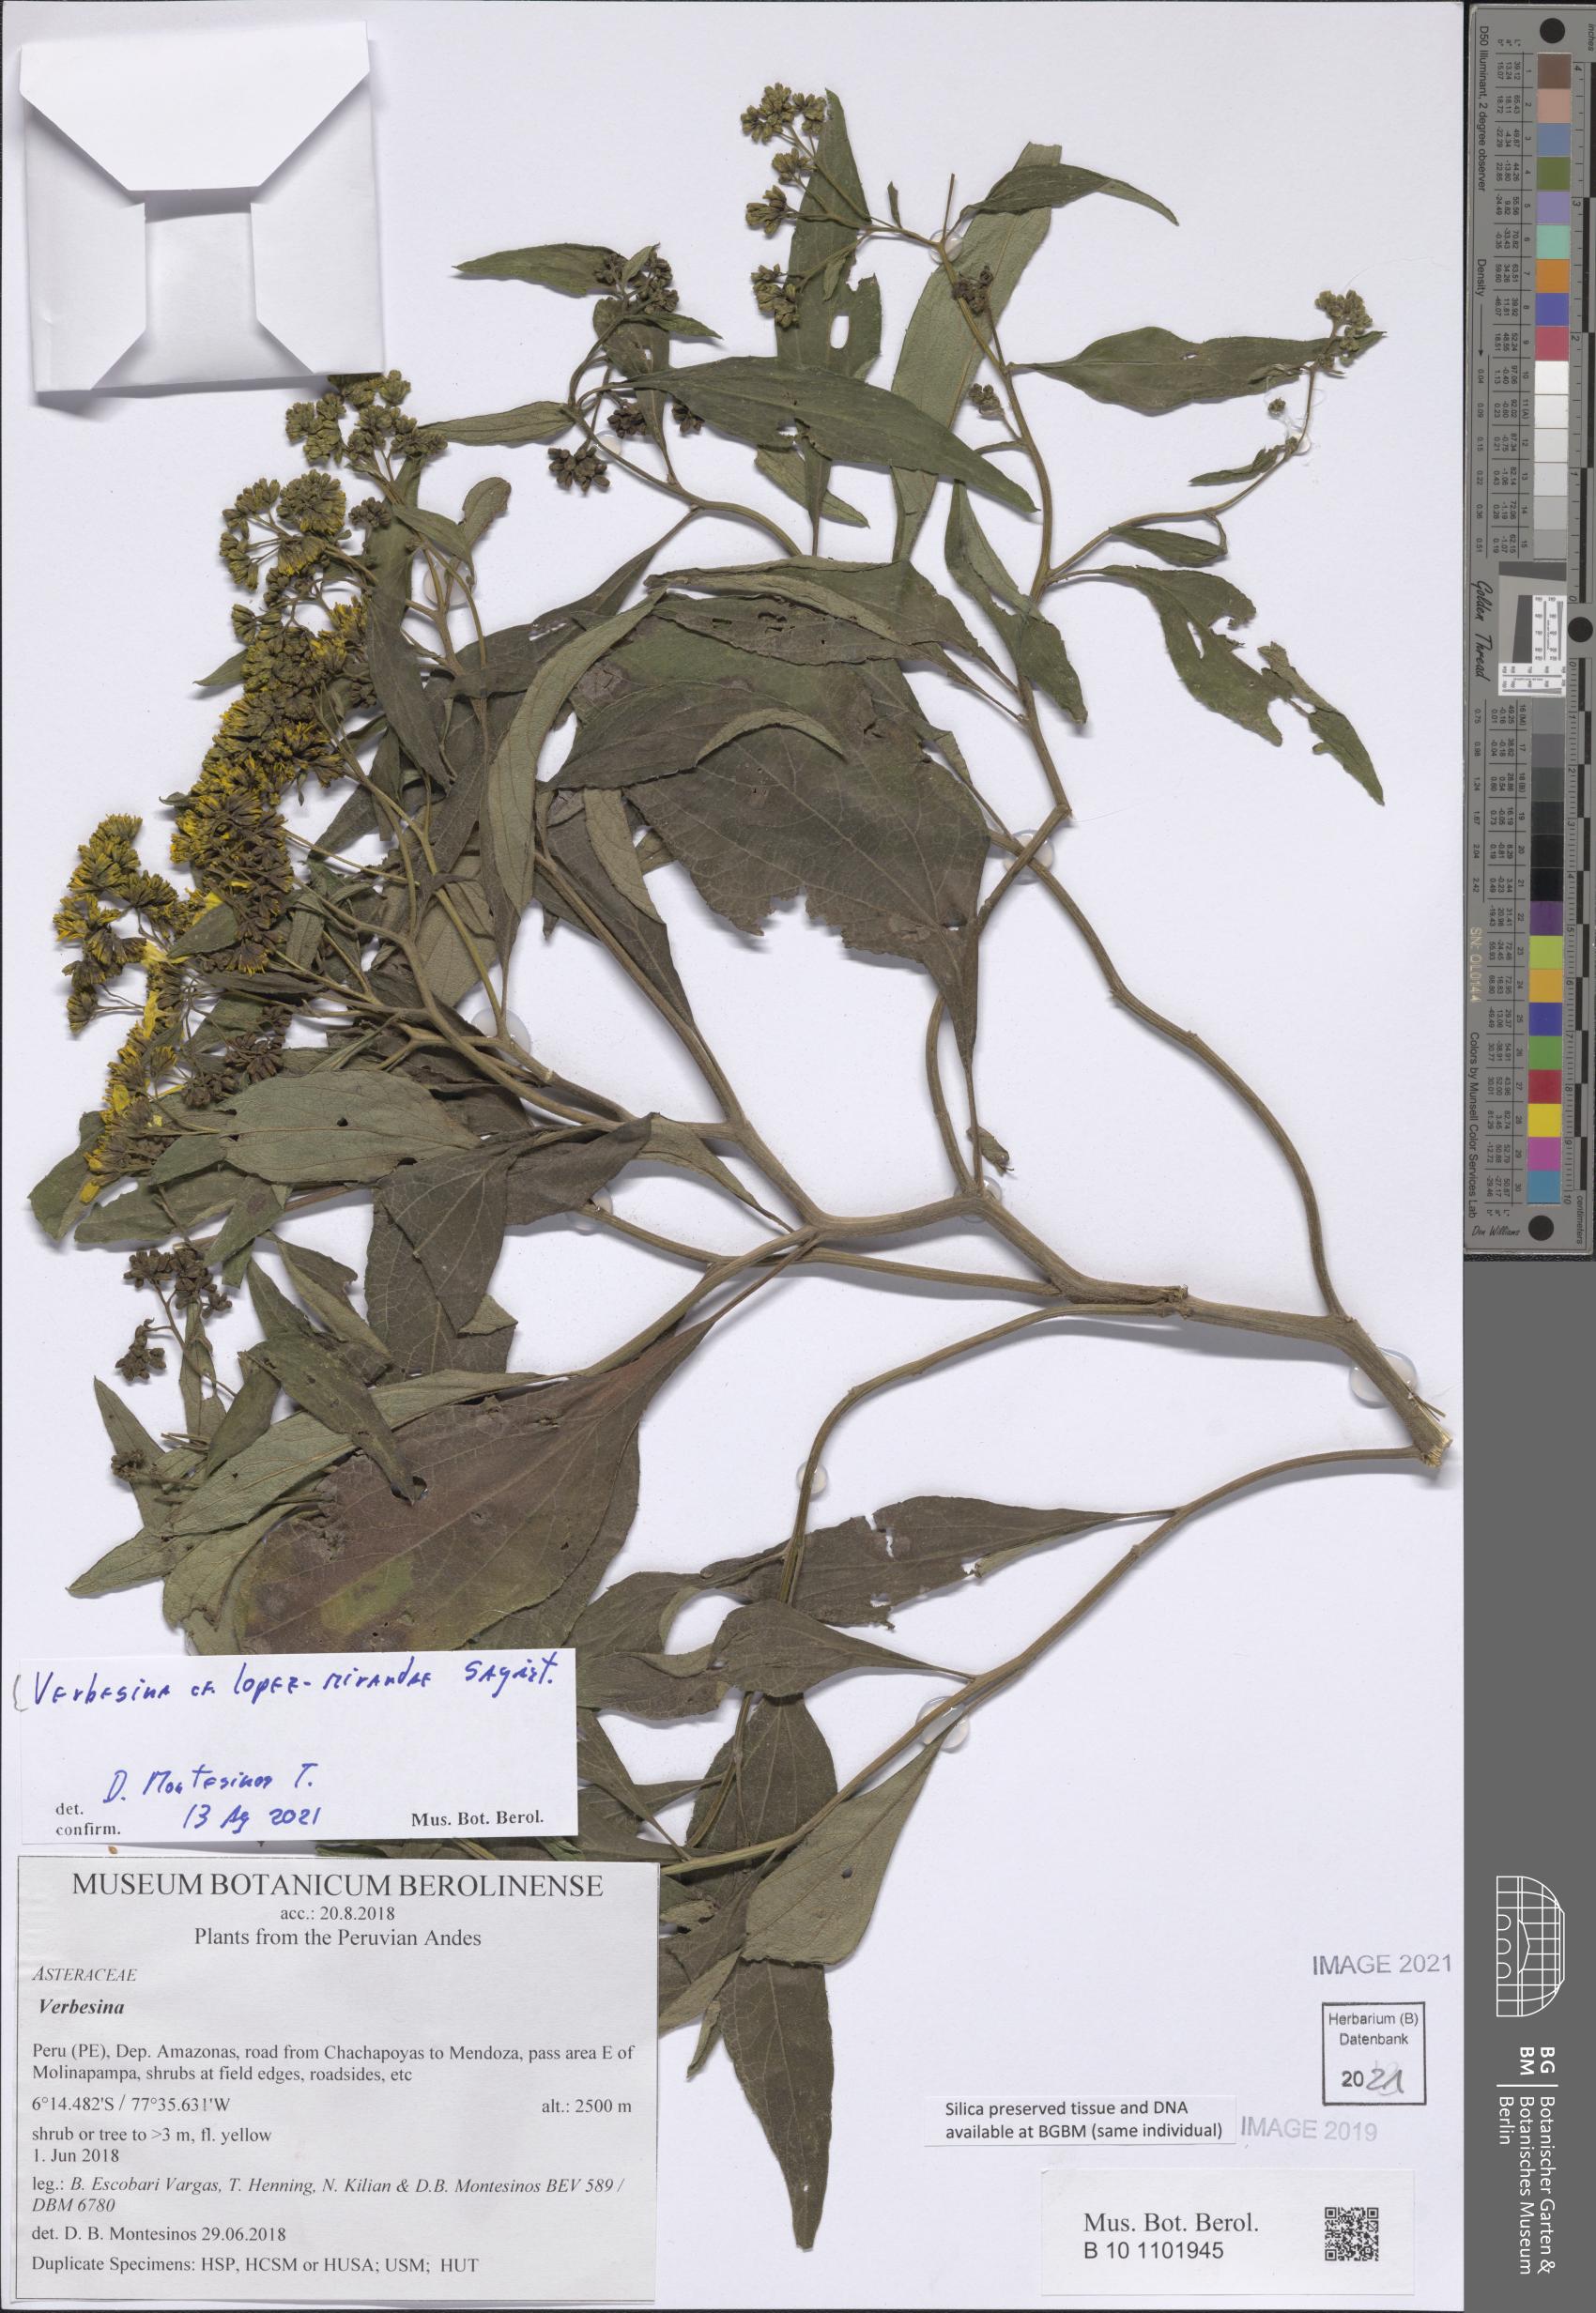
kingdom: Plantae
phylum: Tracheophyta
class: Magnoliopsida
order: Asterales
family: Asteraceae
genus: Verbesina
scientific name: Verbesina lopez-mirandae
